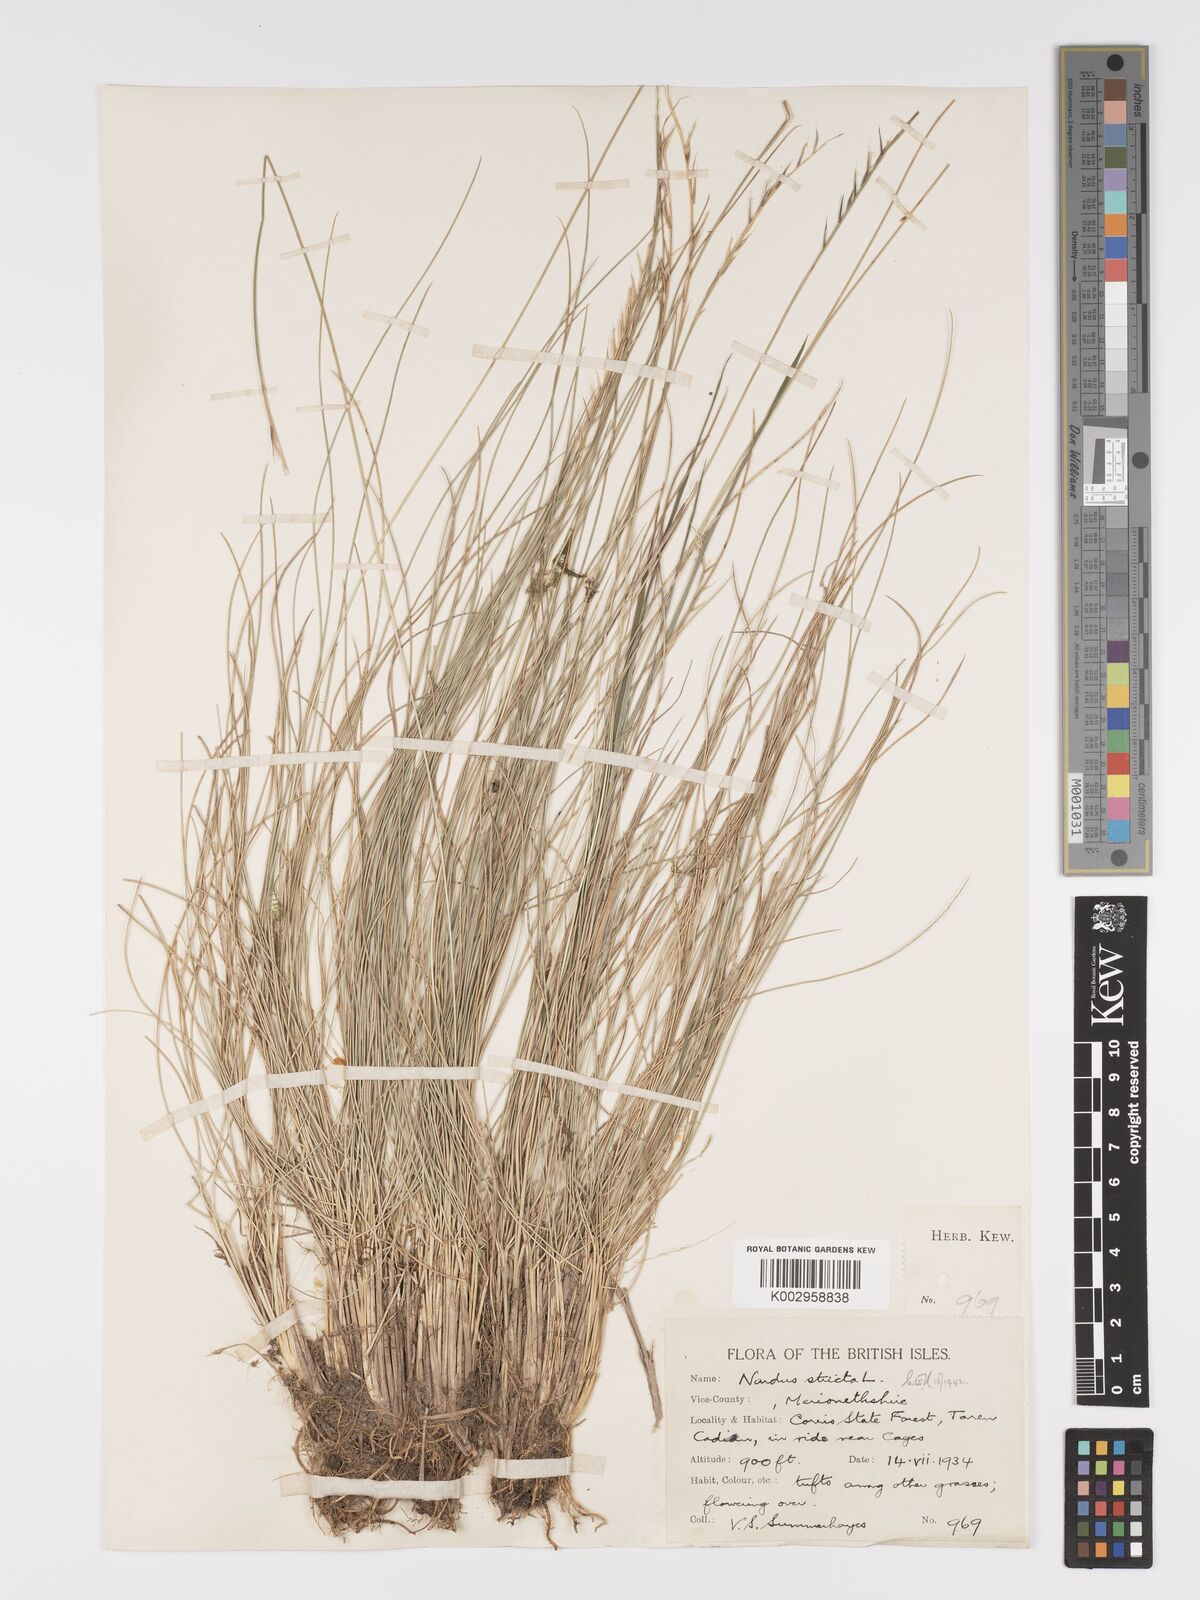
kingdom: Plantae
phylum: Tracheophyta
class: Liliopsida
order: Poales
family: Poaceae
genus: Nardus
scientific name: Nardus stricta
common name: Mat-grass
